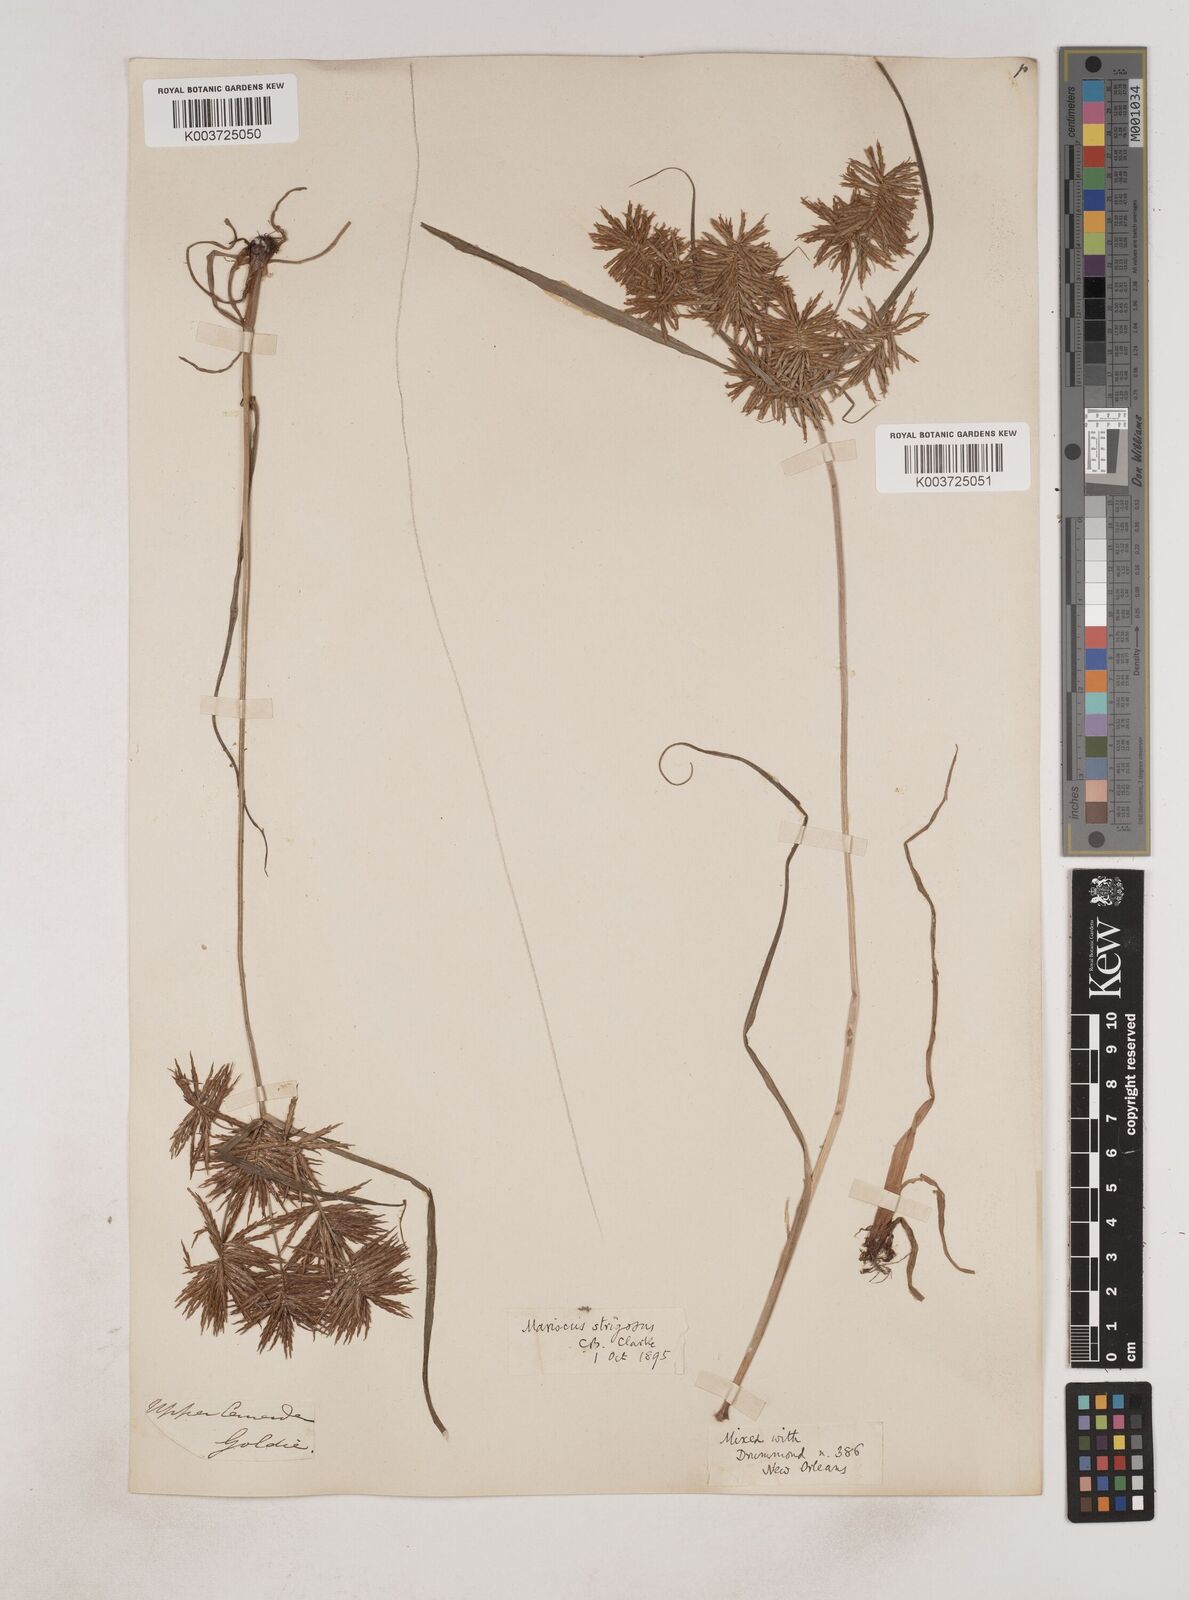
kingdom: Plantae
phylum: Tracheophyta
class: Liliopsida
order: Poales
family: Cyperaceae
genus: Cyperus
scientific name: Cyperus strigosus
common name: False nutsedge
